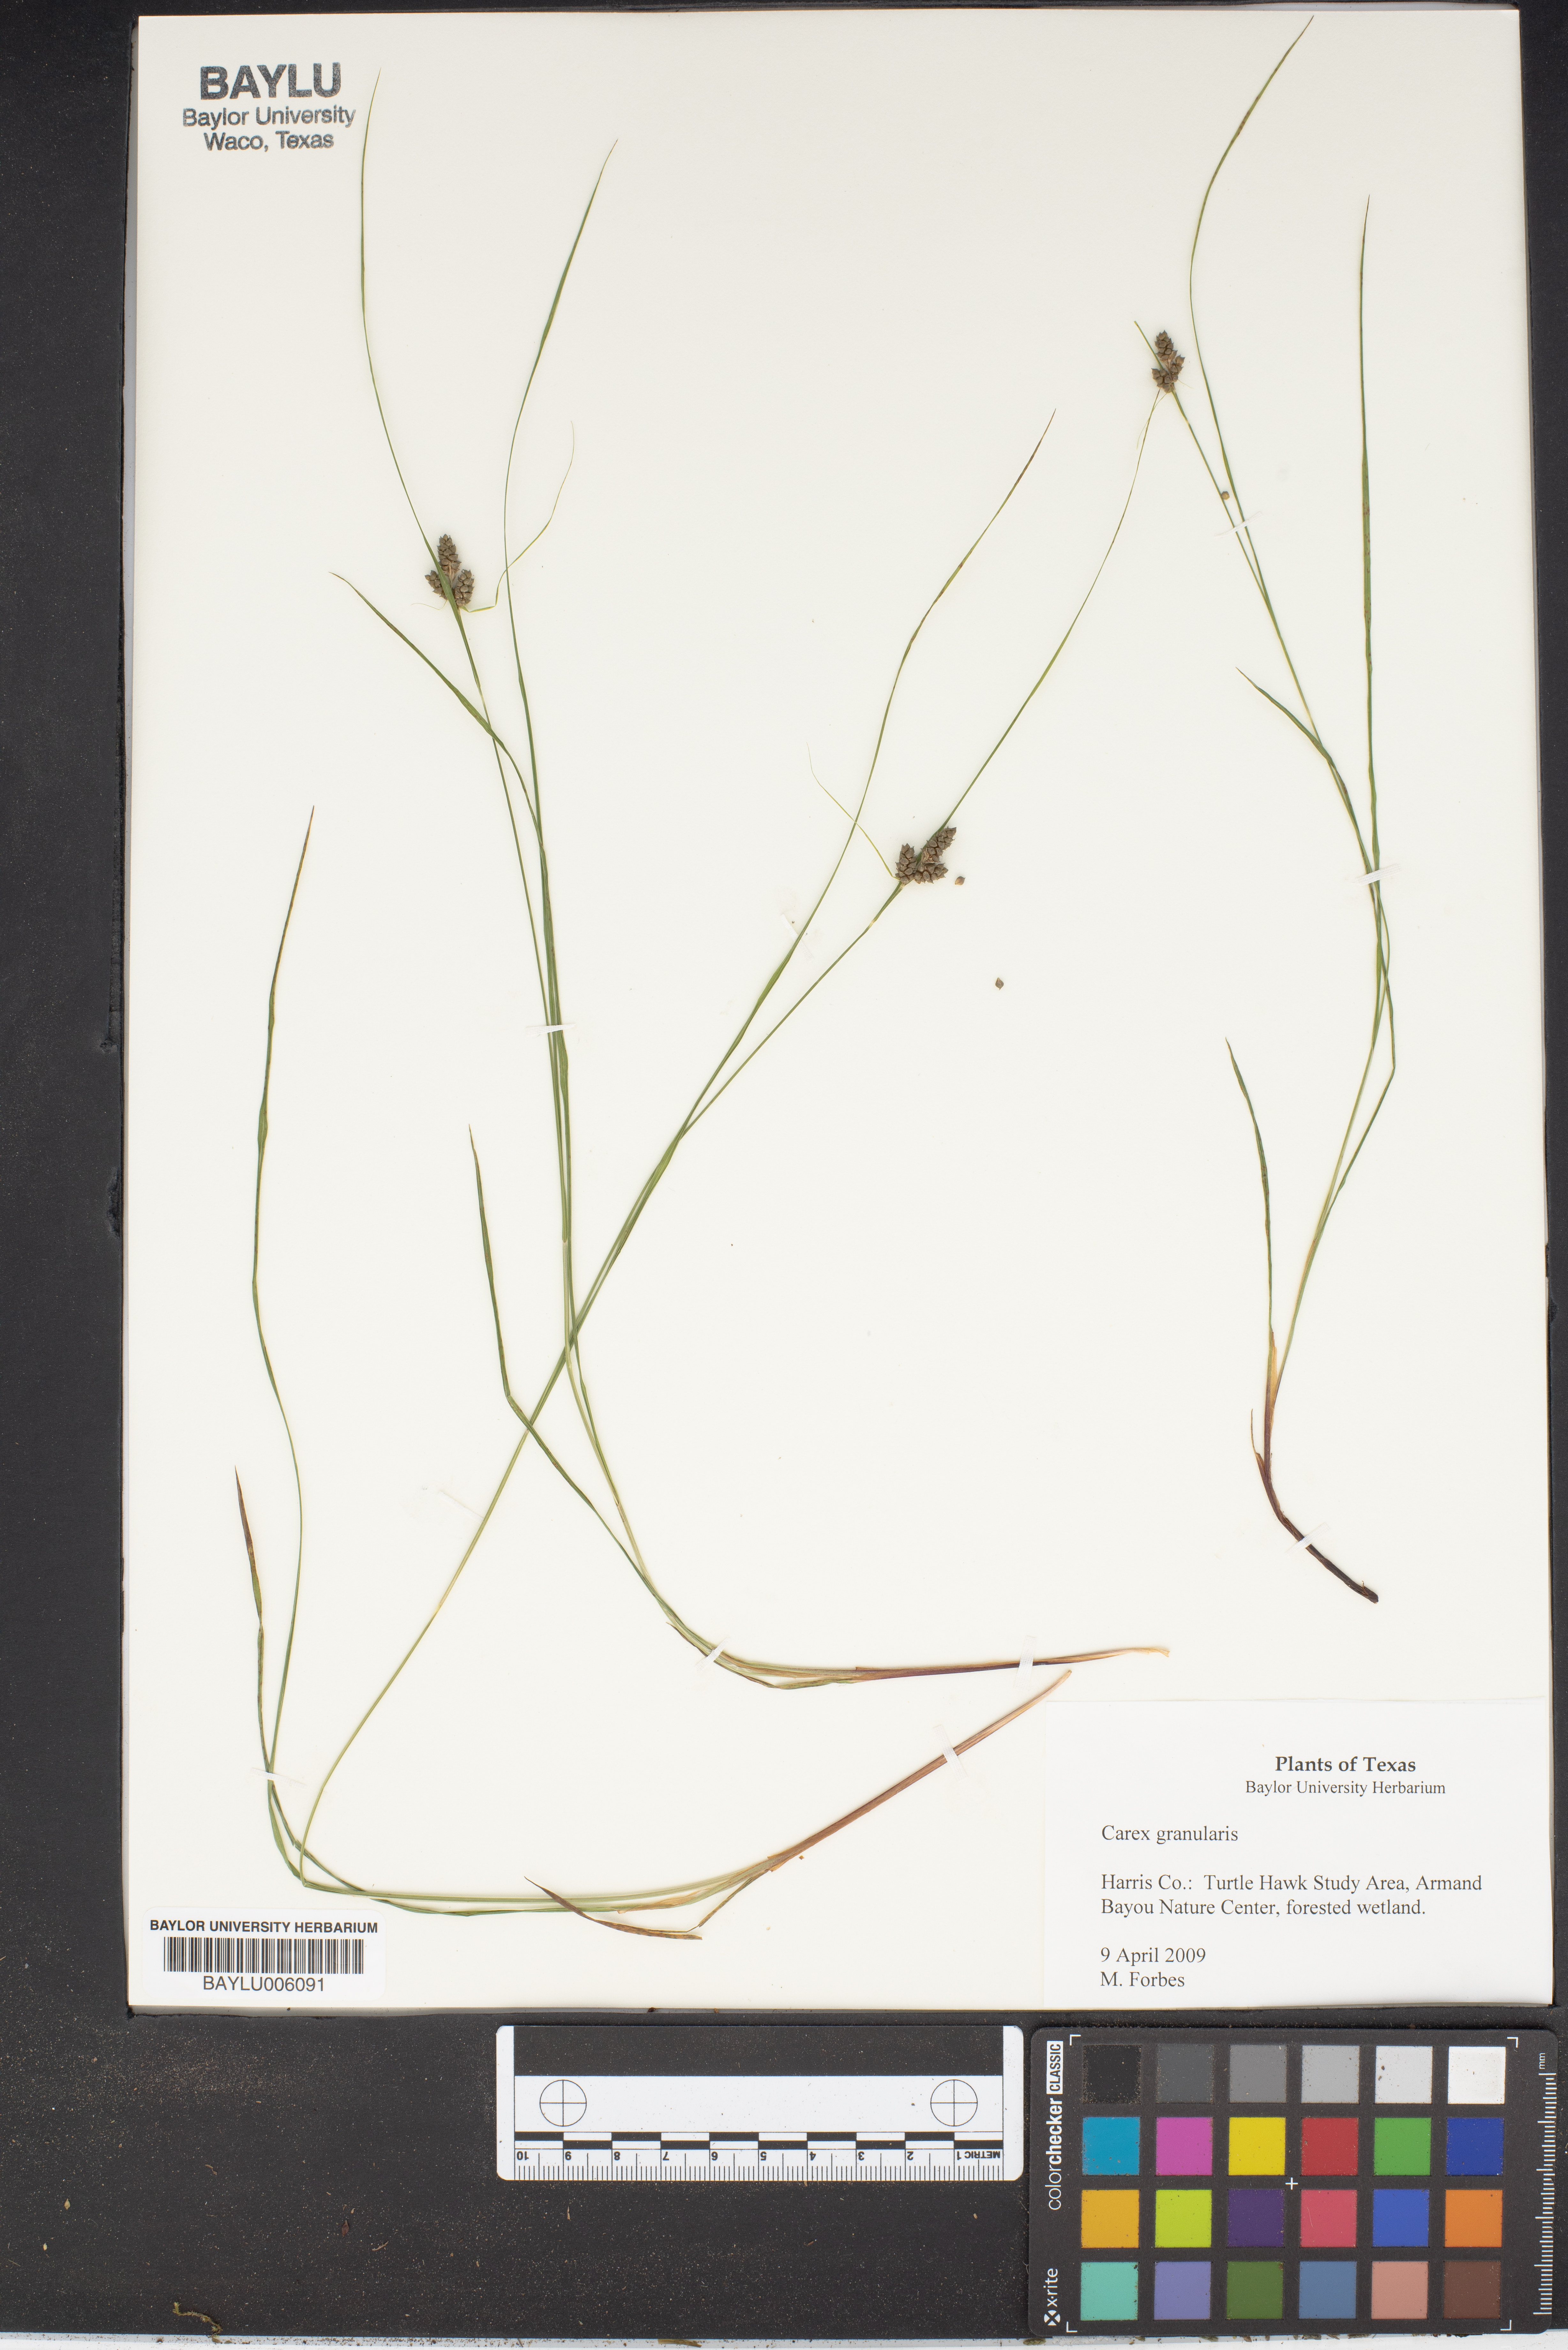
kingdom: Plantae
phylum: Tracheophyta
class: Liliopsida
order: Poales
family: Cyperaceae
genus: Carex
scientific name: Carex granularis
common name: Granular sedge
